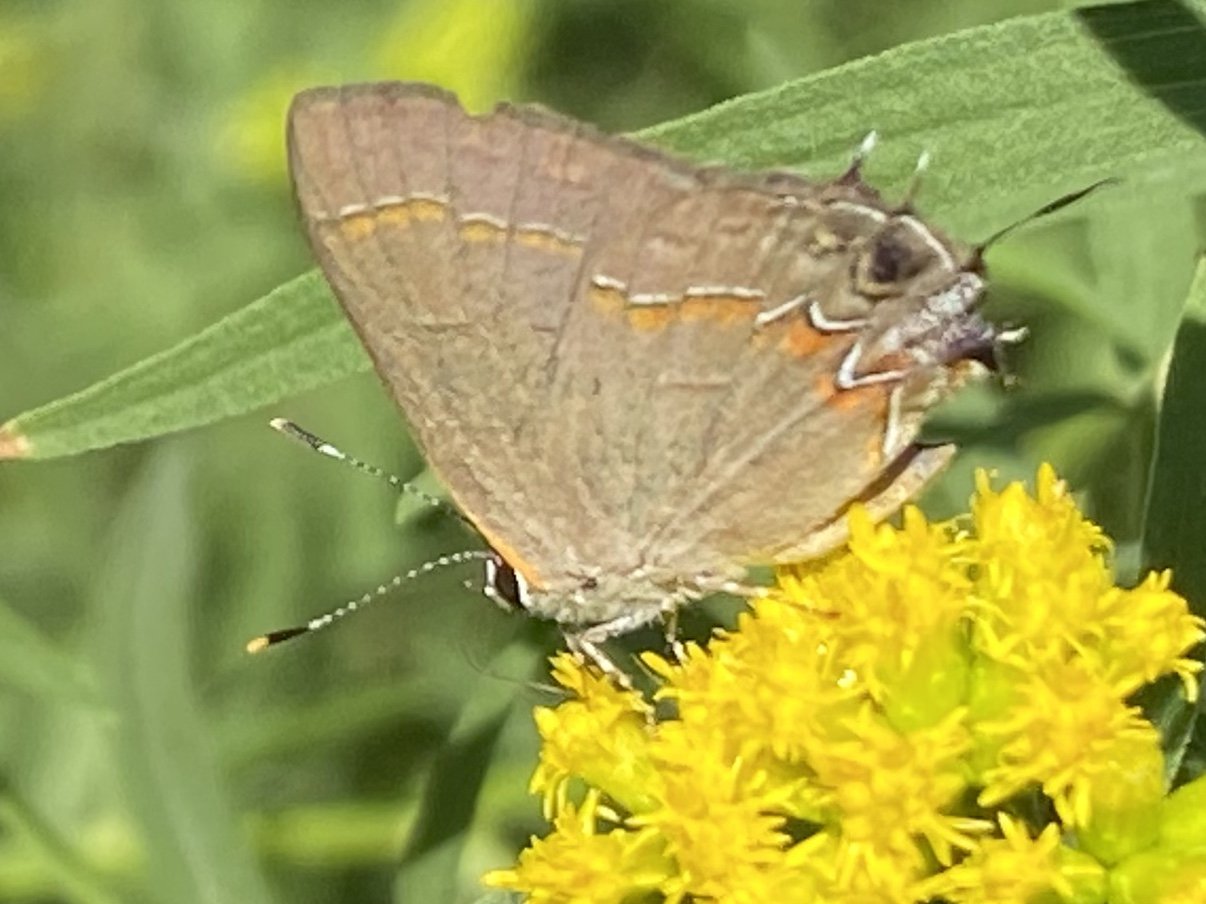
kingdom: Animalia
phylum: Arthropoda
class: Insecta
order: Lepidoptera
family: Lycaenidae
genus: Calycopis
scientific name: Calycopis cecrops
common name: Red-banded Hairstreak
